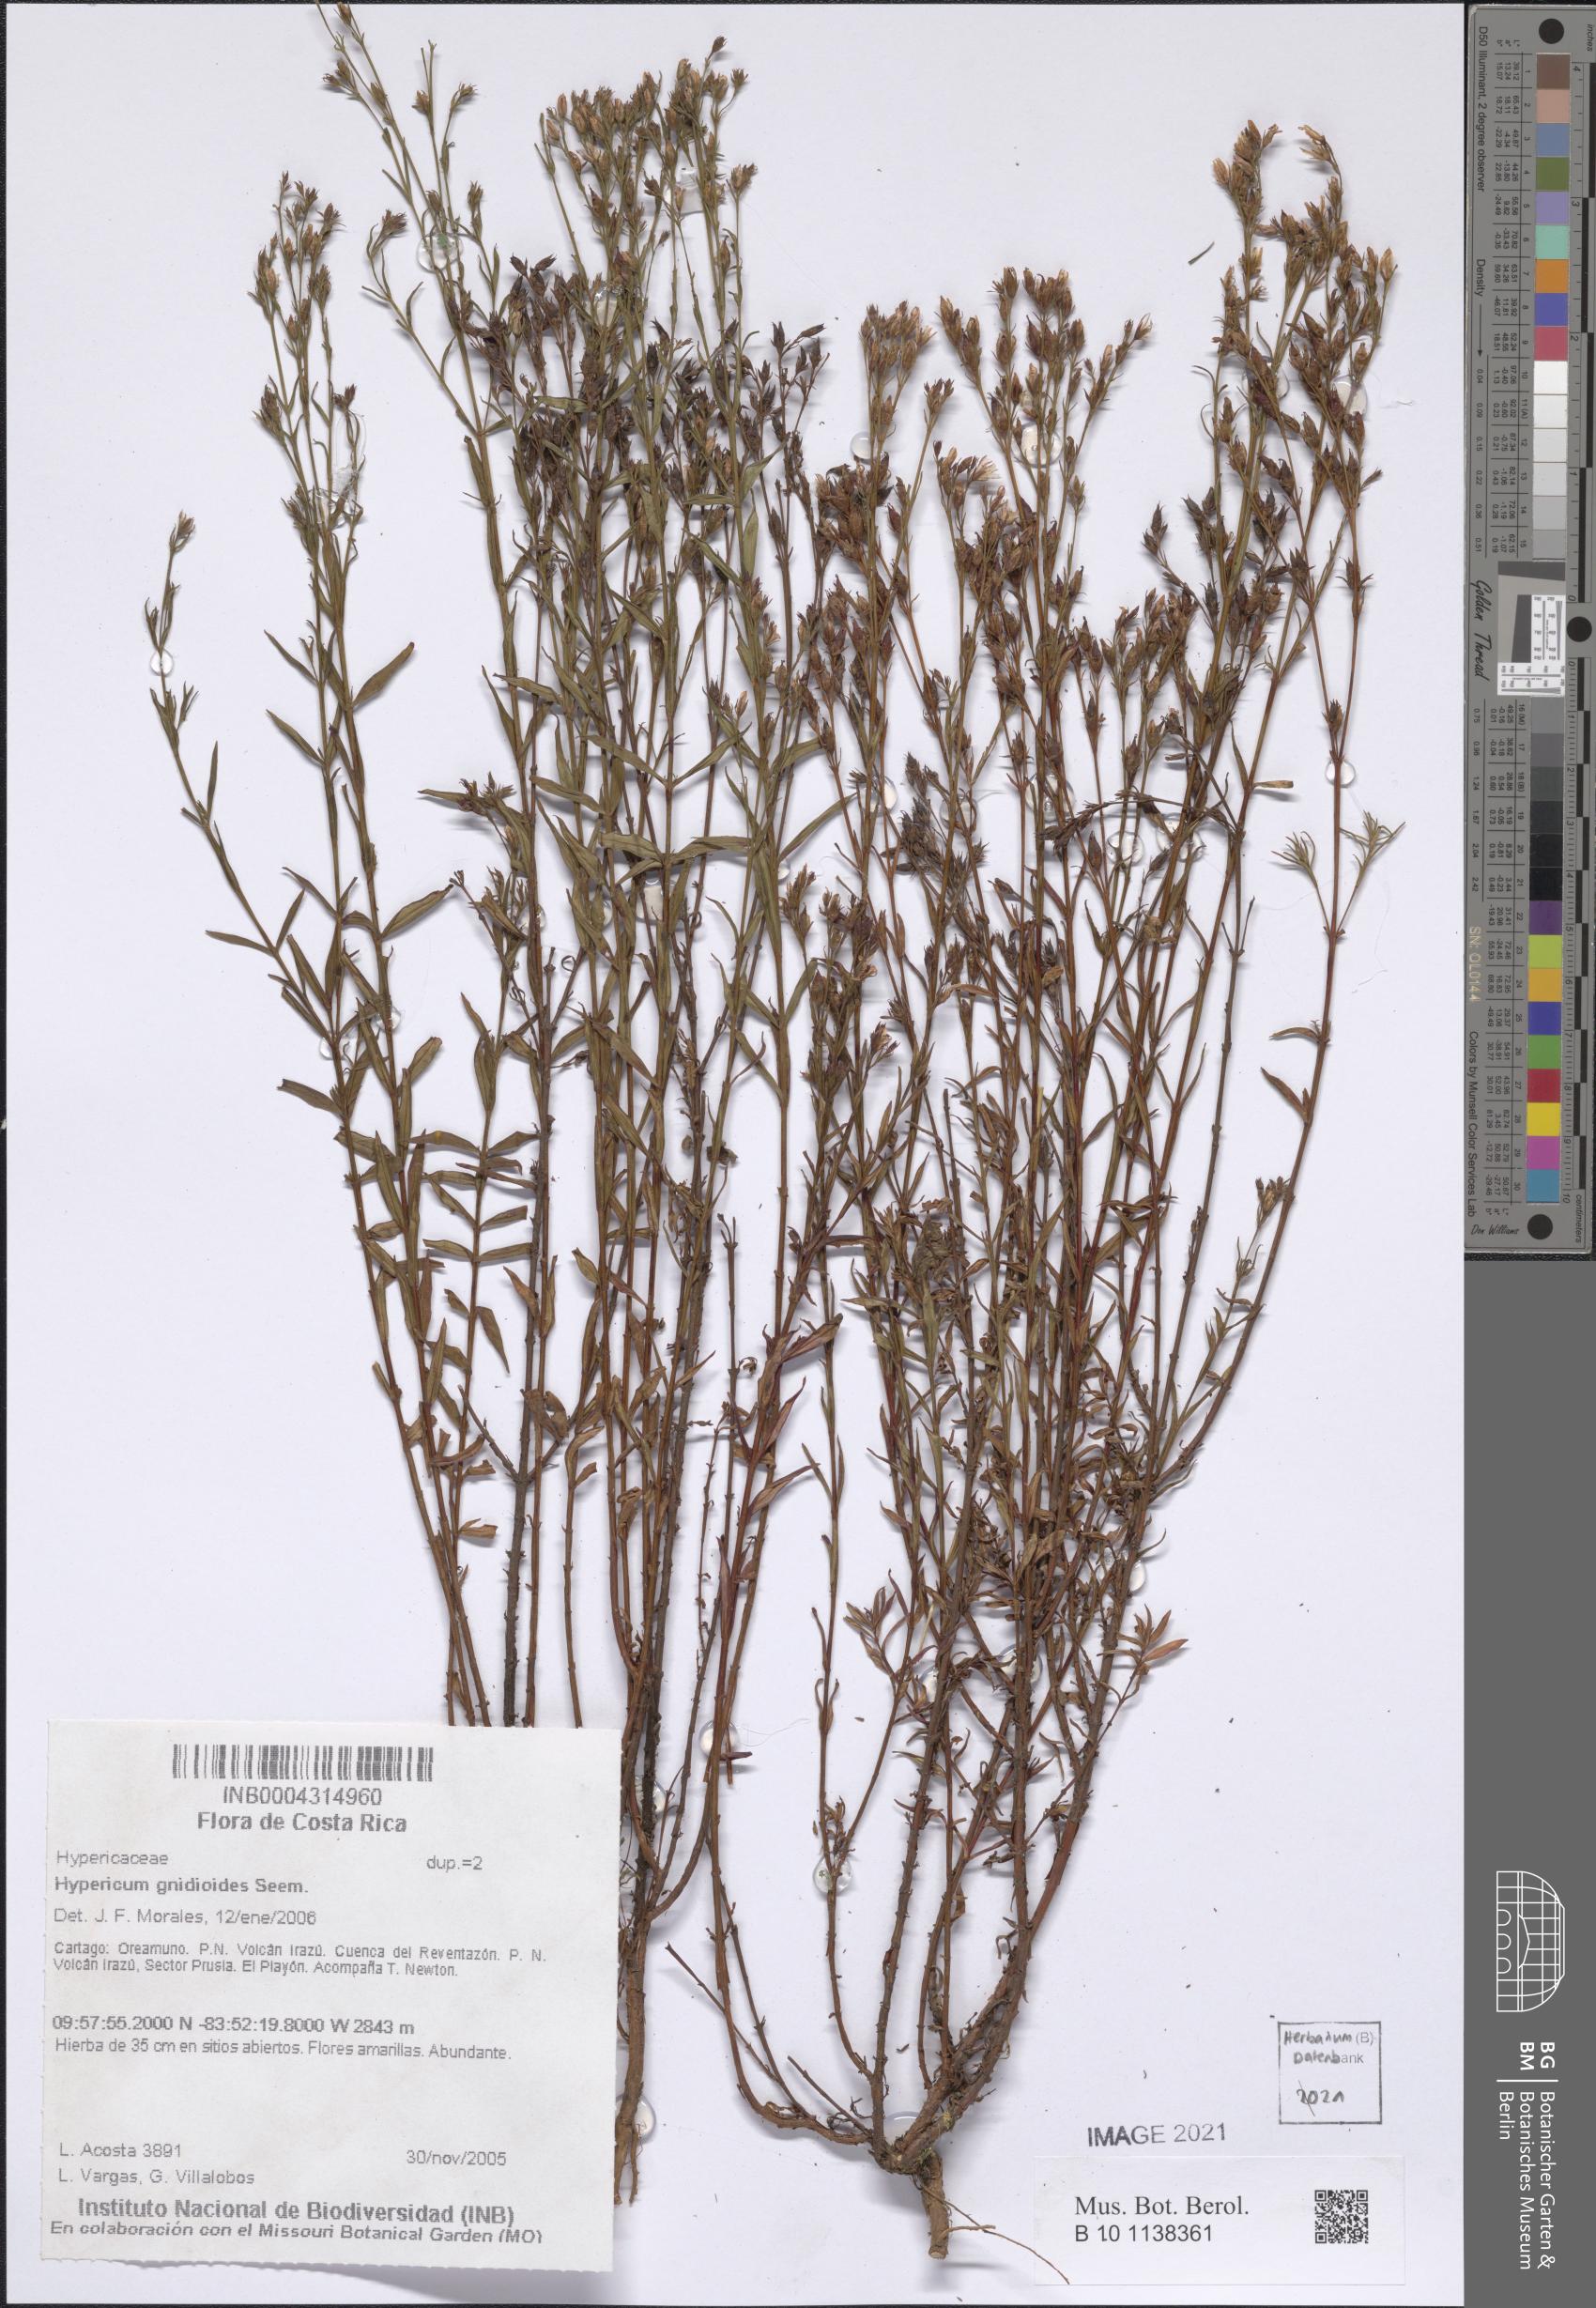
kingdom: Plantae
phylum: Tracheophyta
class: Magnoliopsida
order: Malpighiales
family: Hypericaceae
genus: Hypericum
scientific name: Hypericum gnidioides
